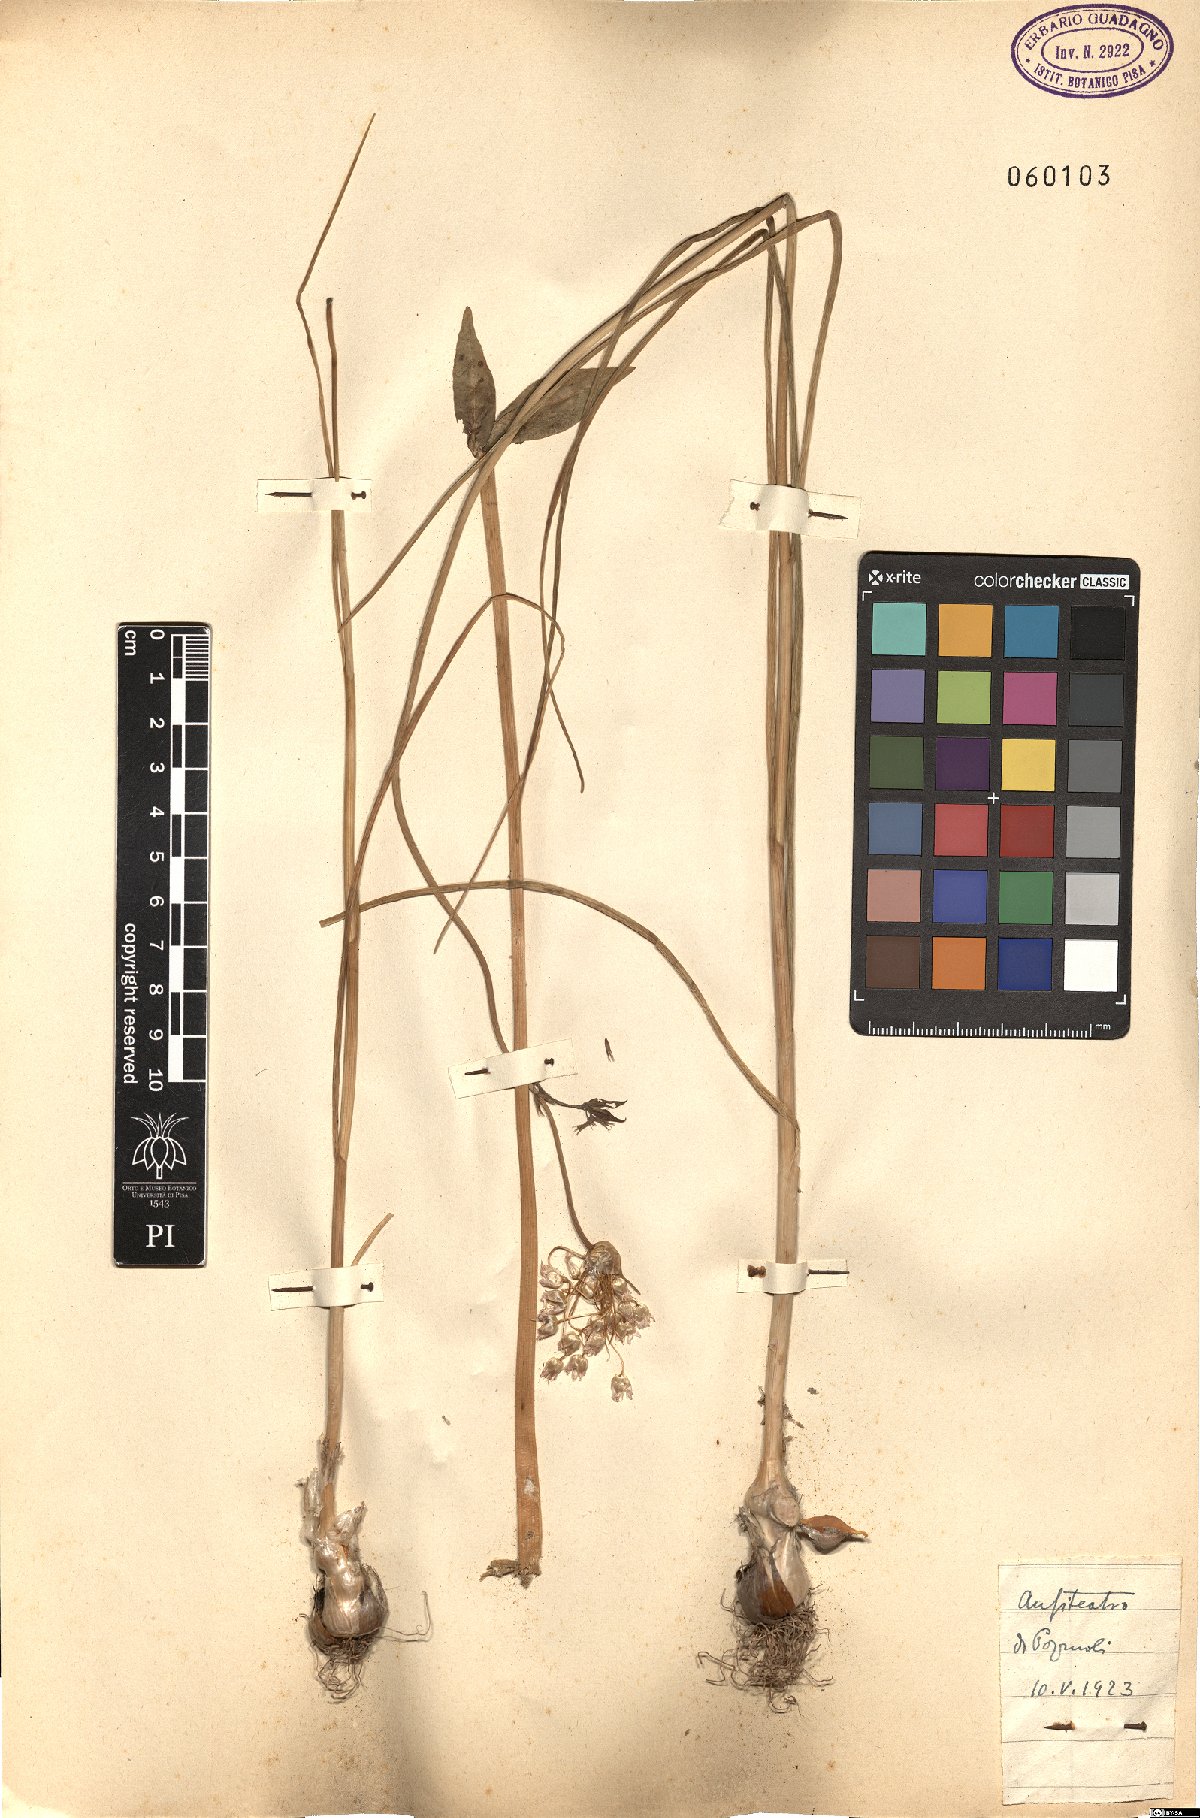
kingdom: Plantae
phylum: Tracheophyta
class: Liliopsida
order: Asparagales
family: Amaryllidaceae
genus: Allium
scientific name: Allium roseum
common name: Rosy garlic
